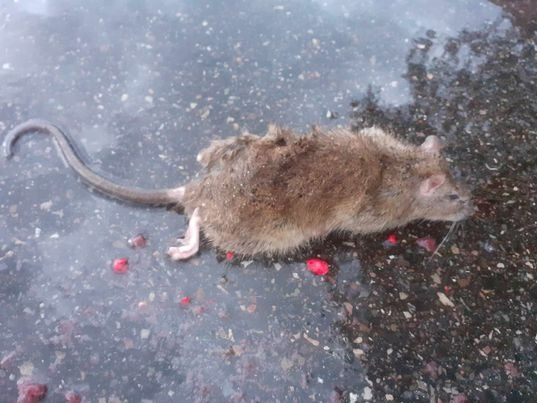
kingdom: Animalia
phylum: Chordata
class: Mammalia
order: Rodentia
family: Muridae
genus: Rattus
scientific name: Rattus norvegicus
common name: Brun rotte
